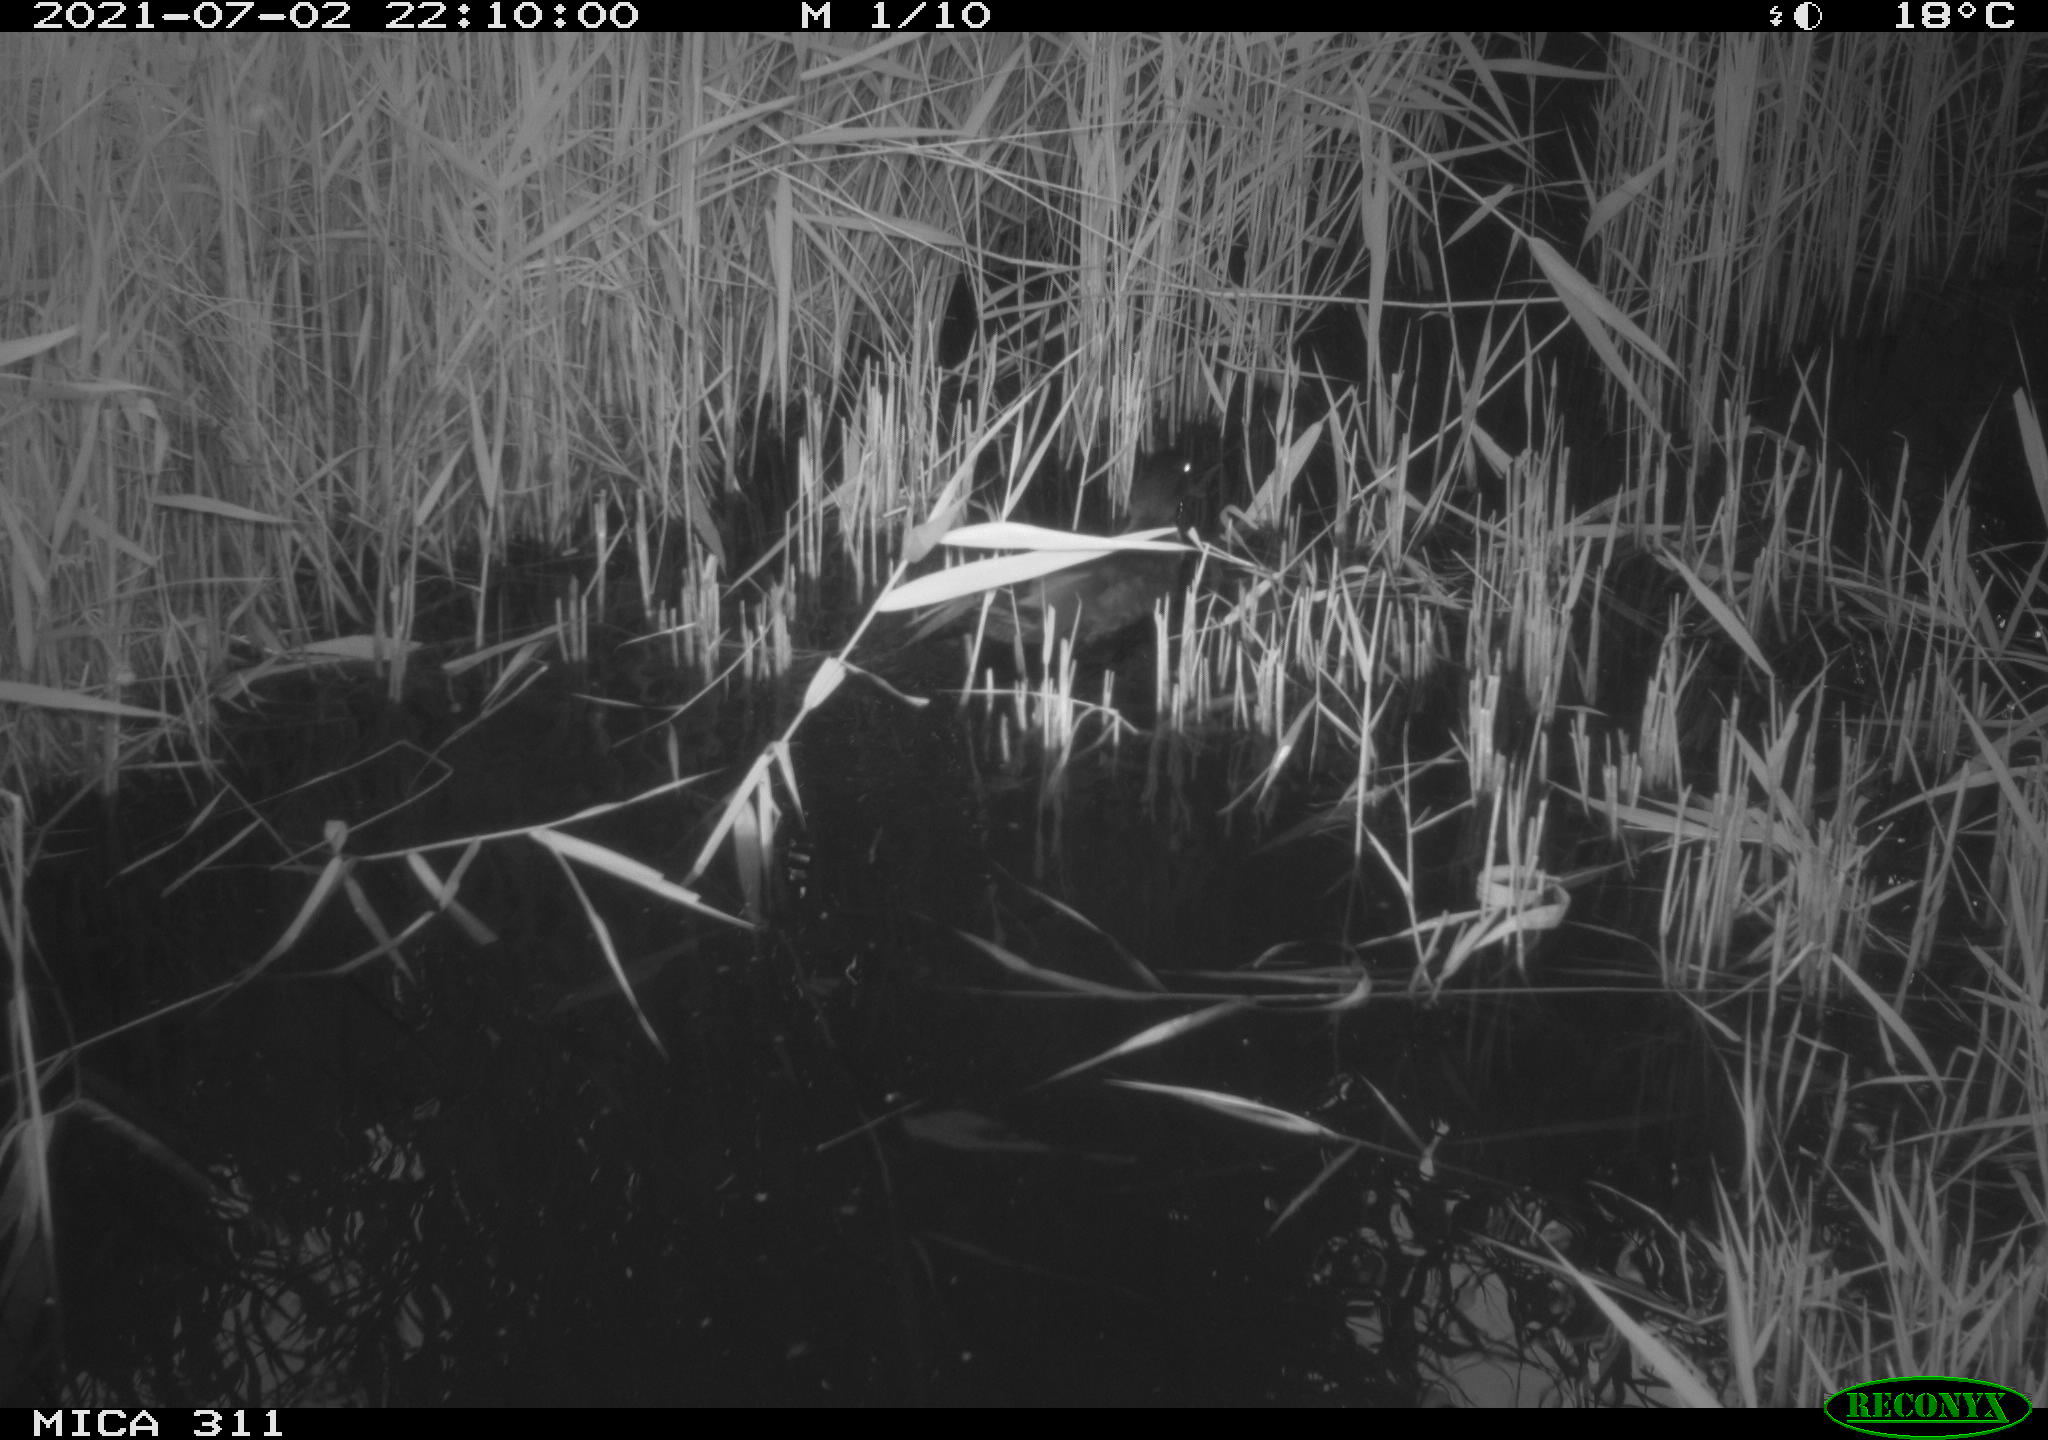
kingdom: Animalia
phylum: Chordata
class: Aves
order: Anseriformes
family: Anatidae
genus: Anas
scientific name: Anas platyrhynchos
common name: Mallard
